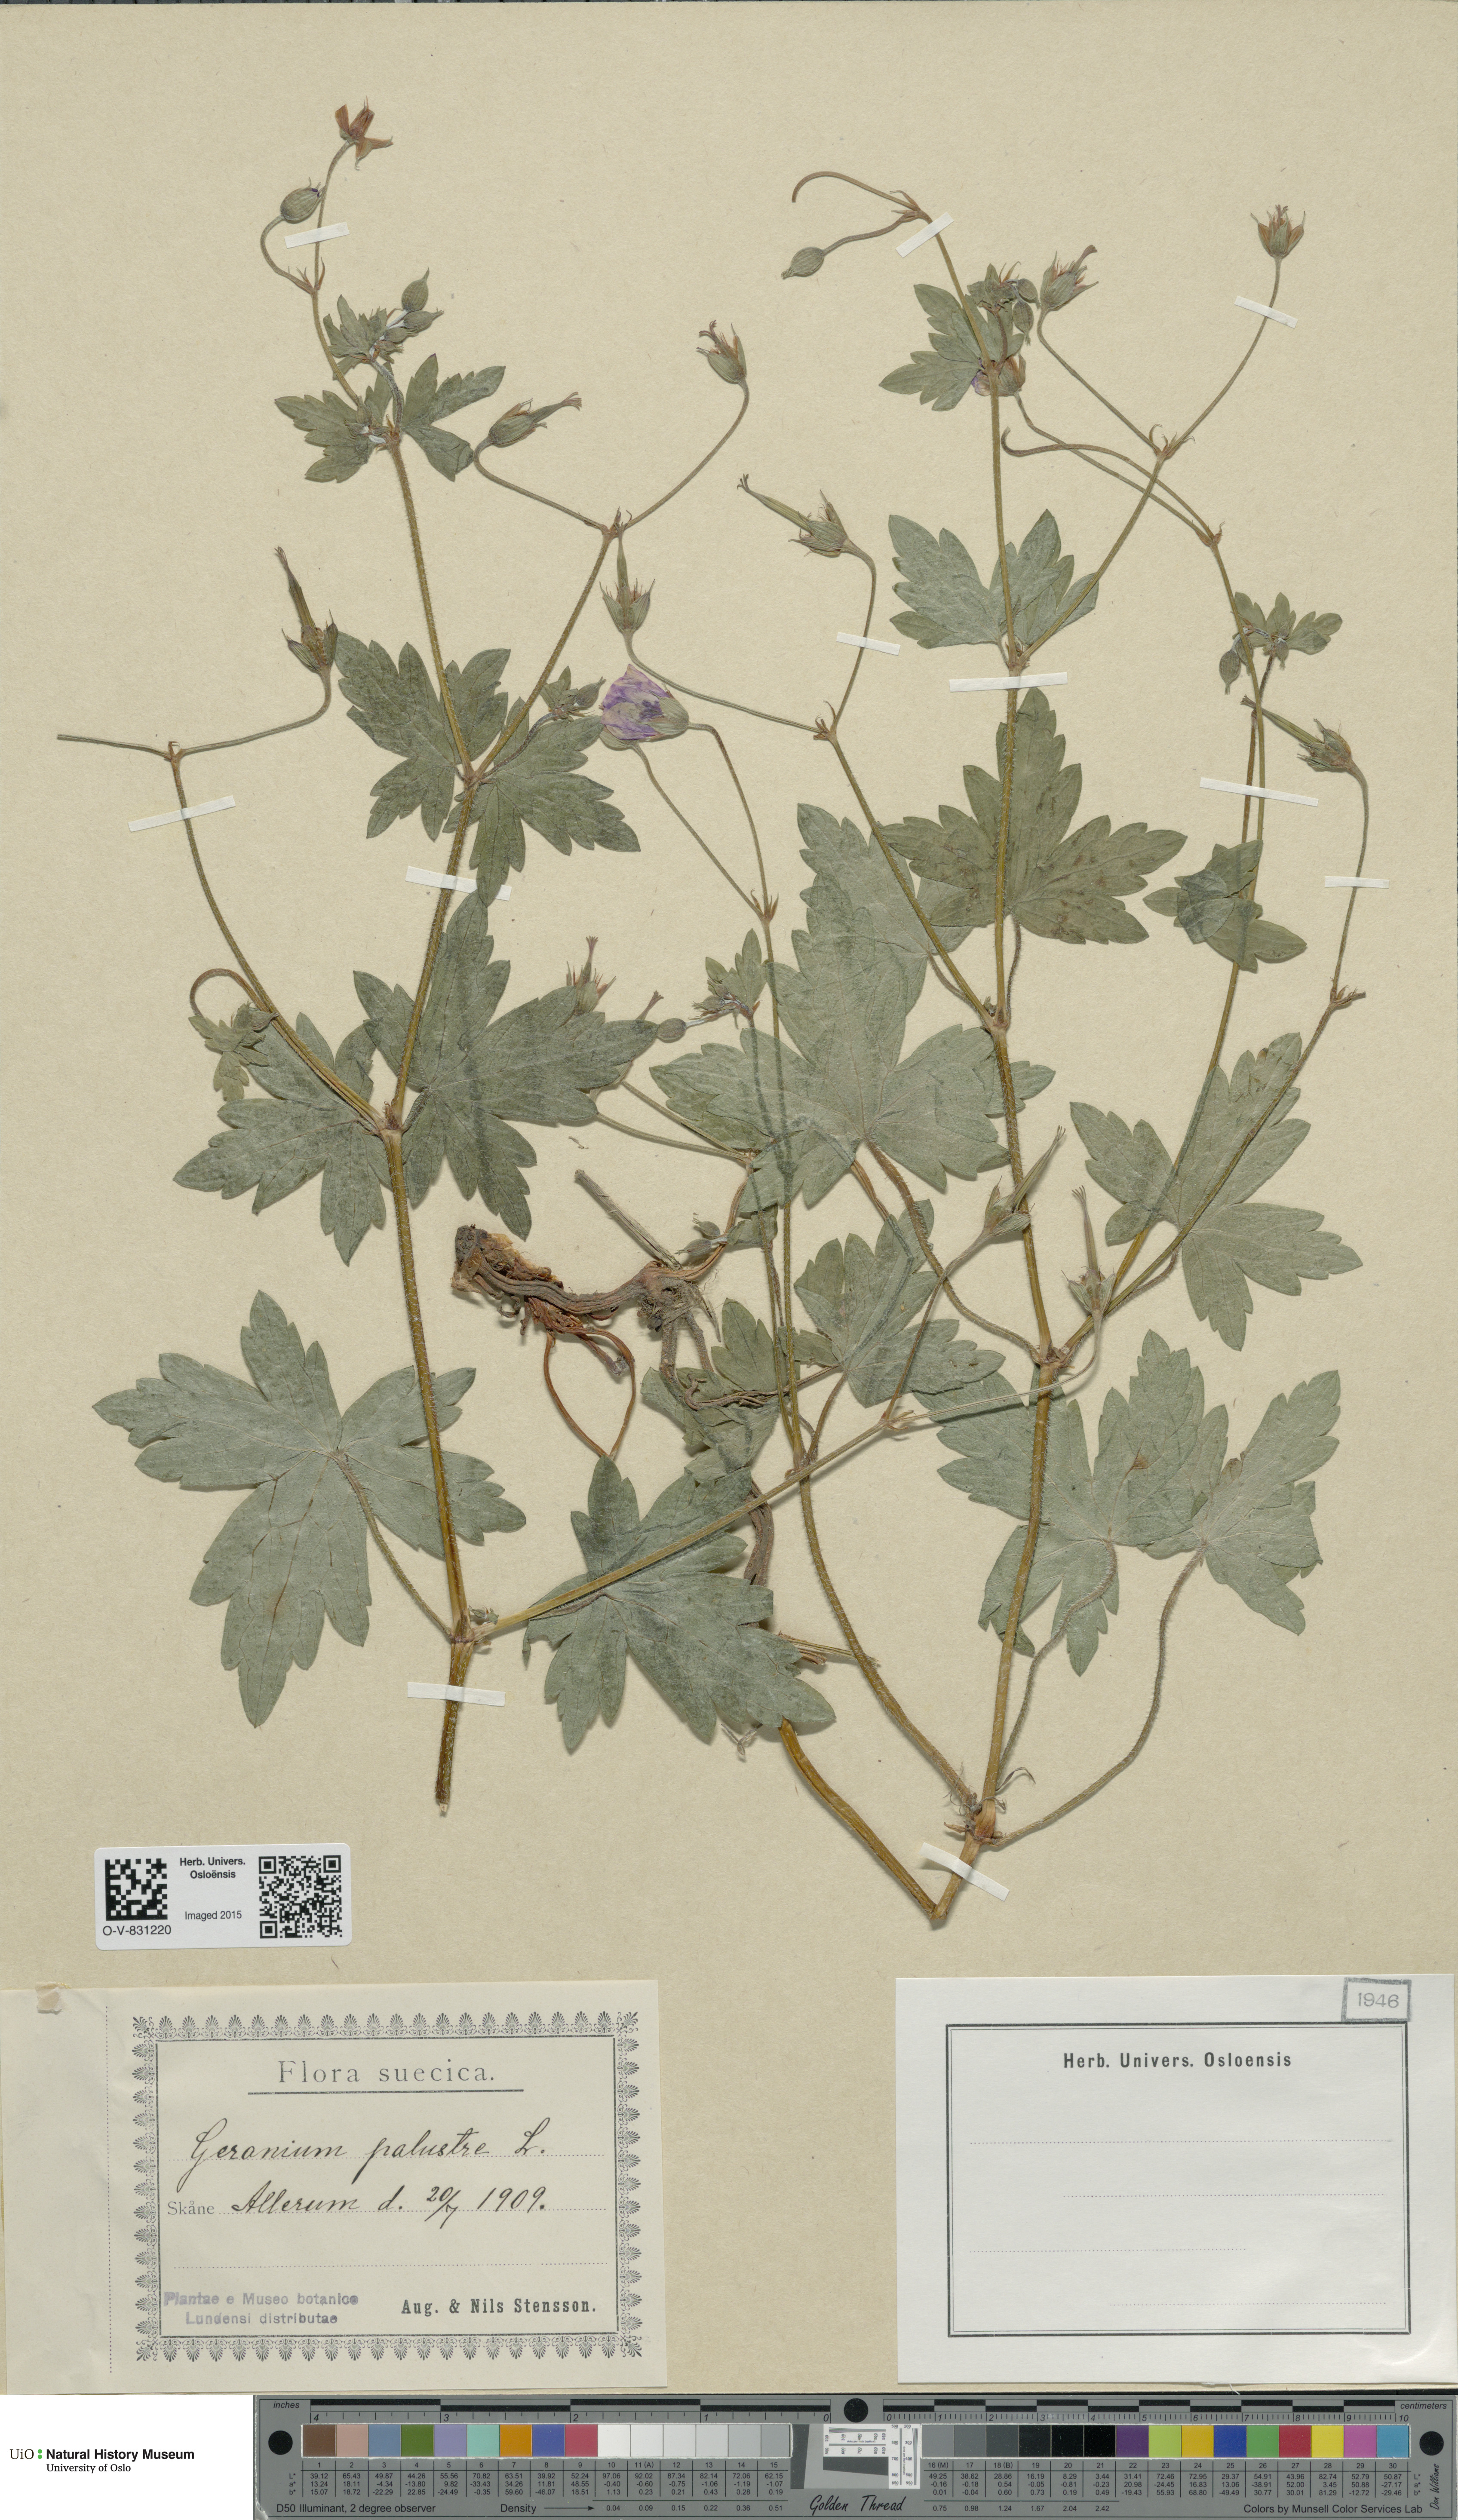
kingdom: Plantae
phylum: Tracheophyta
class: Magnoliopsida
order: Geraniales
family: Geraniaceae
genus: Geranium
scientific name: Geranium palustre
